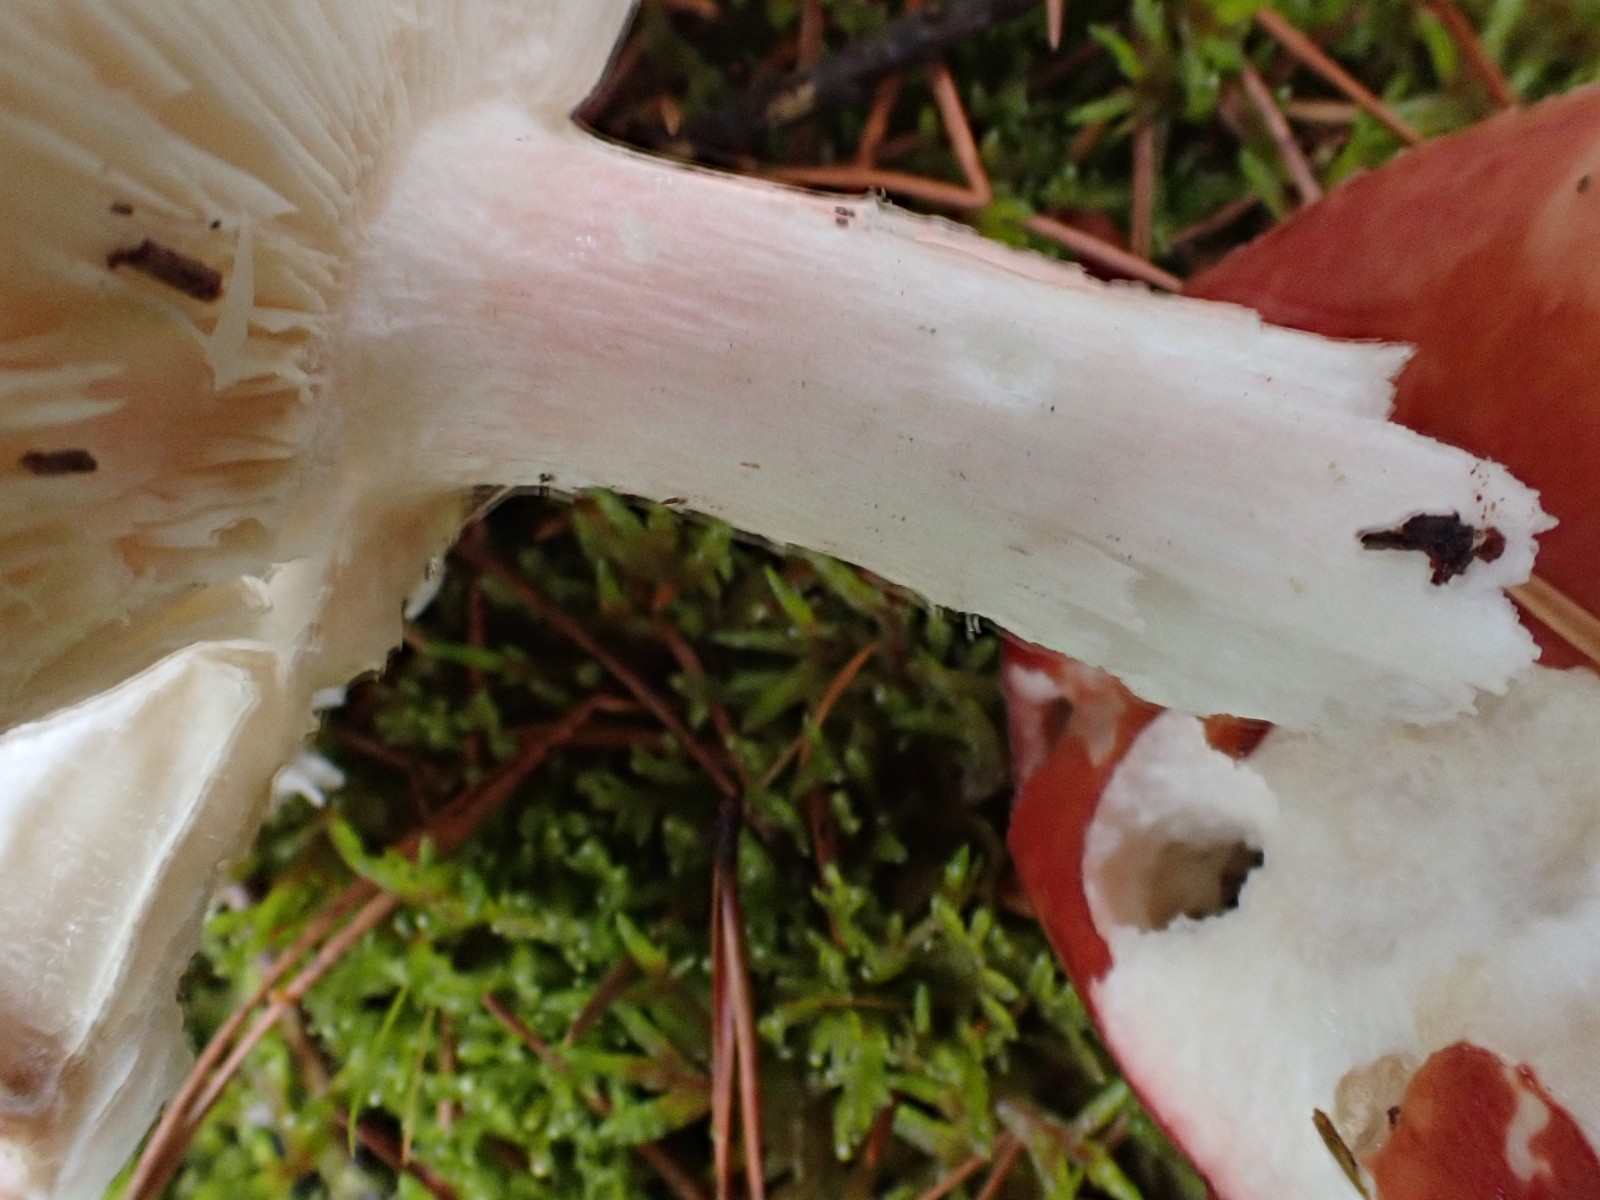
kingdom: Fungi
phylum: Basidiomycota
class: Agaricomycetes
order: Russulales
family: Russulaceae
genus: Russula
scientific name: Russula paludosa
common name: prægtig skørhat
